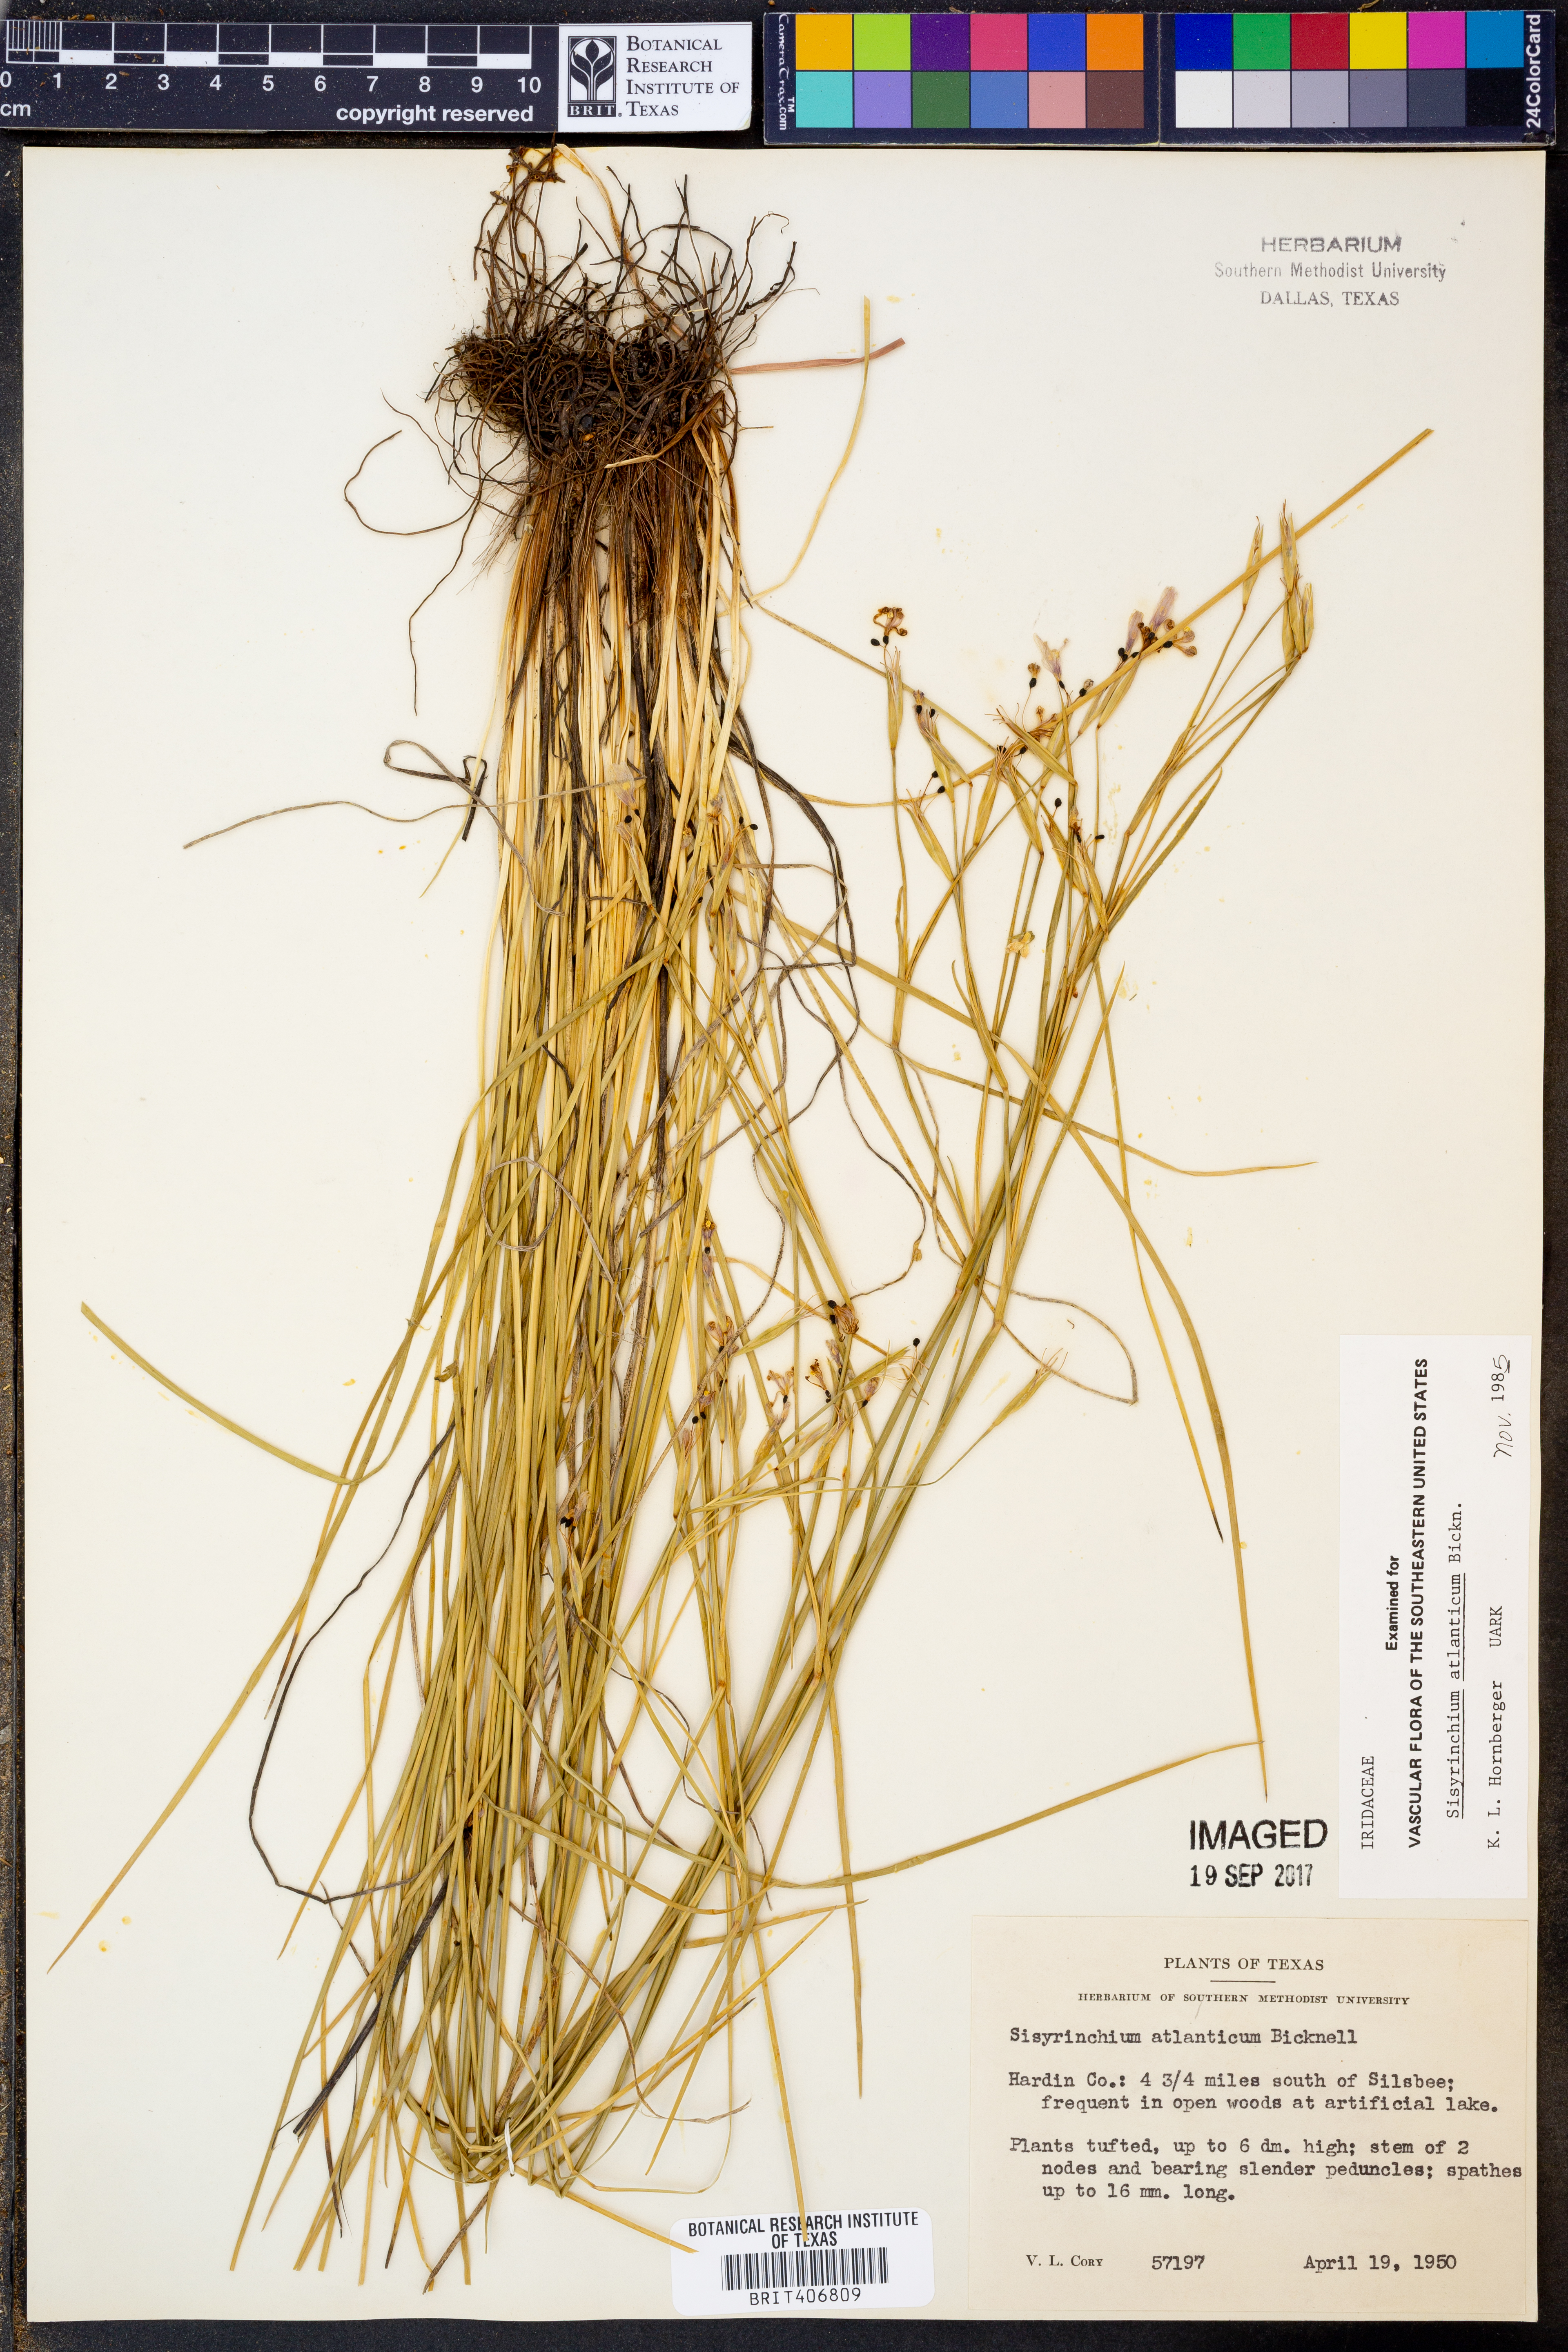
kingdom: Plantae
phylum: Tracheophyta
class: Liliopsida
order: Asparagales
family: Iridaceae
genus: Sisyrinchium
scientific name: Sisyrinchium atlanticum
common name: Eastern blue-eyed-grass
